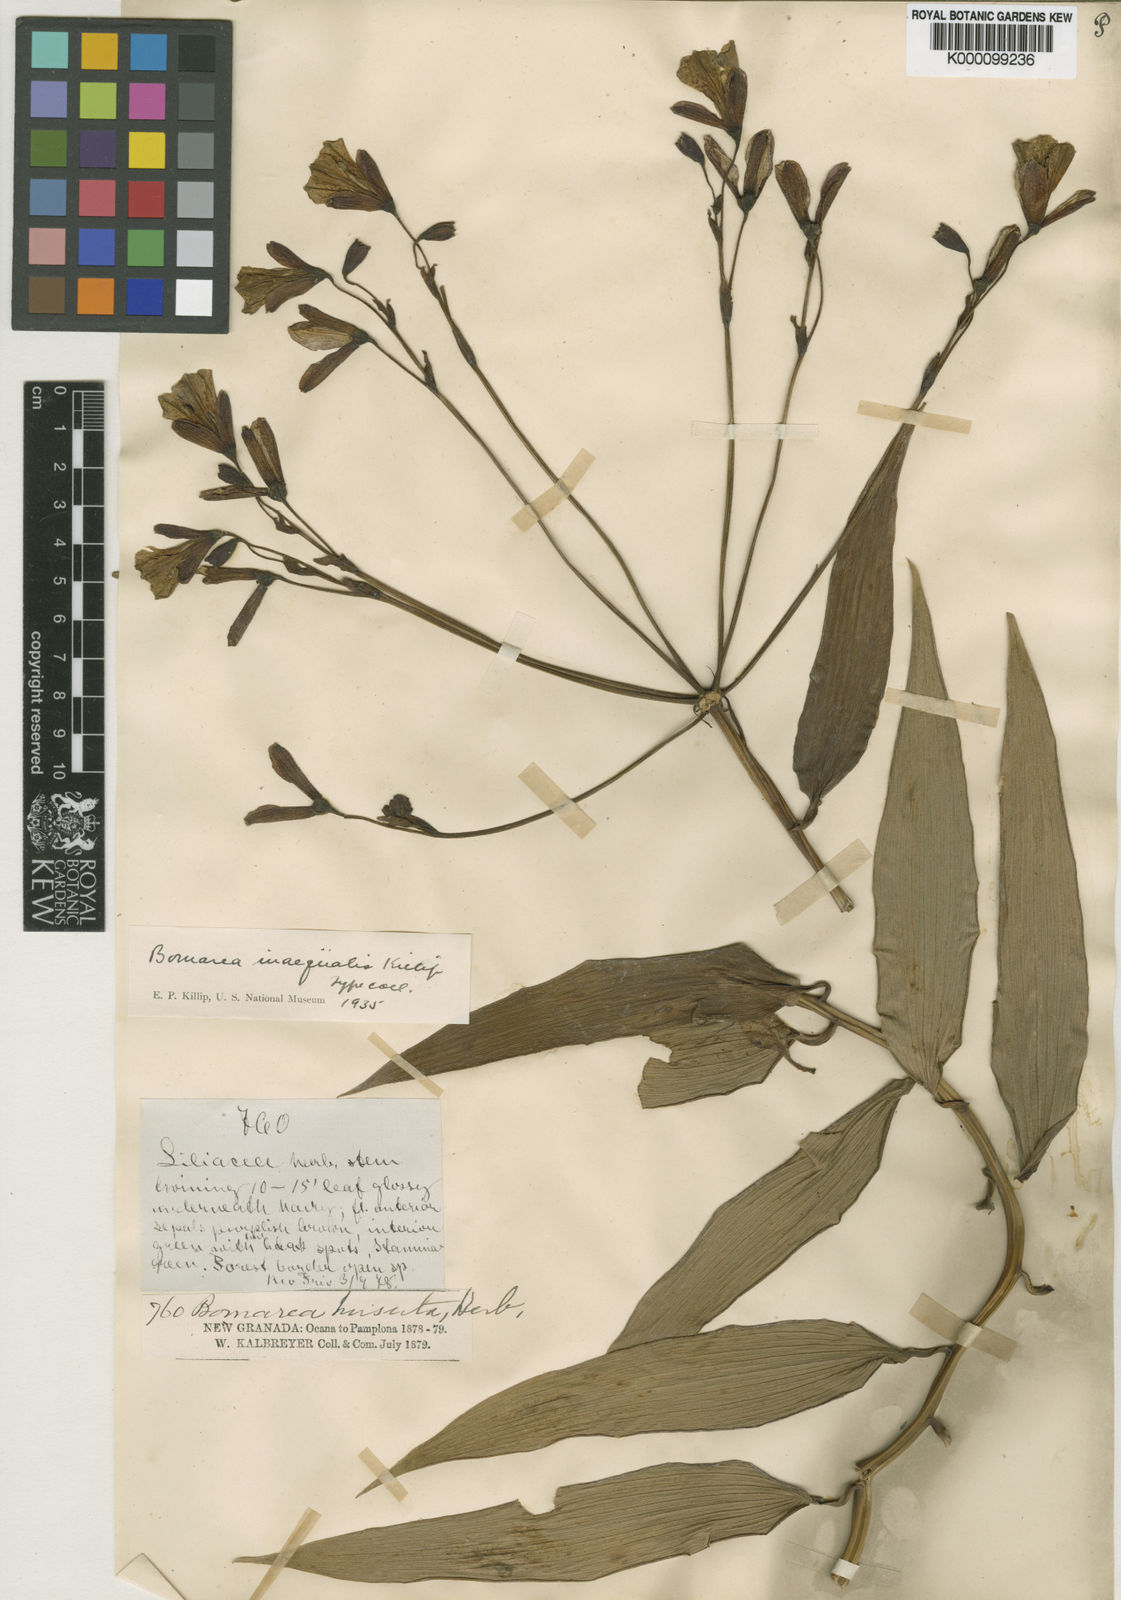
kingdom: Plantae
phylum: Tracheophyta
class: Liliopsida
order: Liliales
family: Alstroemeriaceae
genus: Bomarea
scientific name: Bomarea inaequalis
